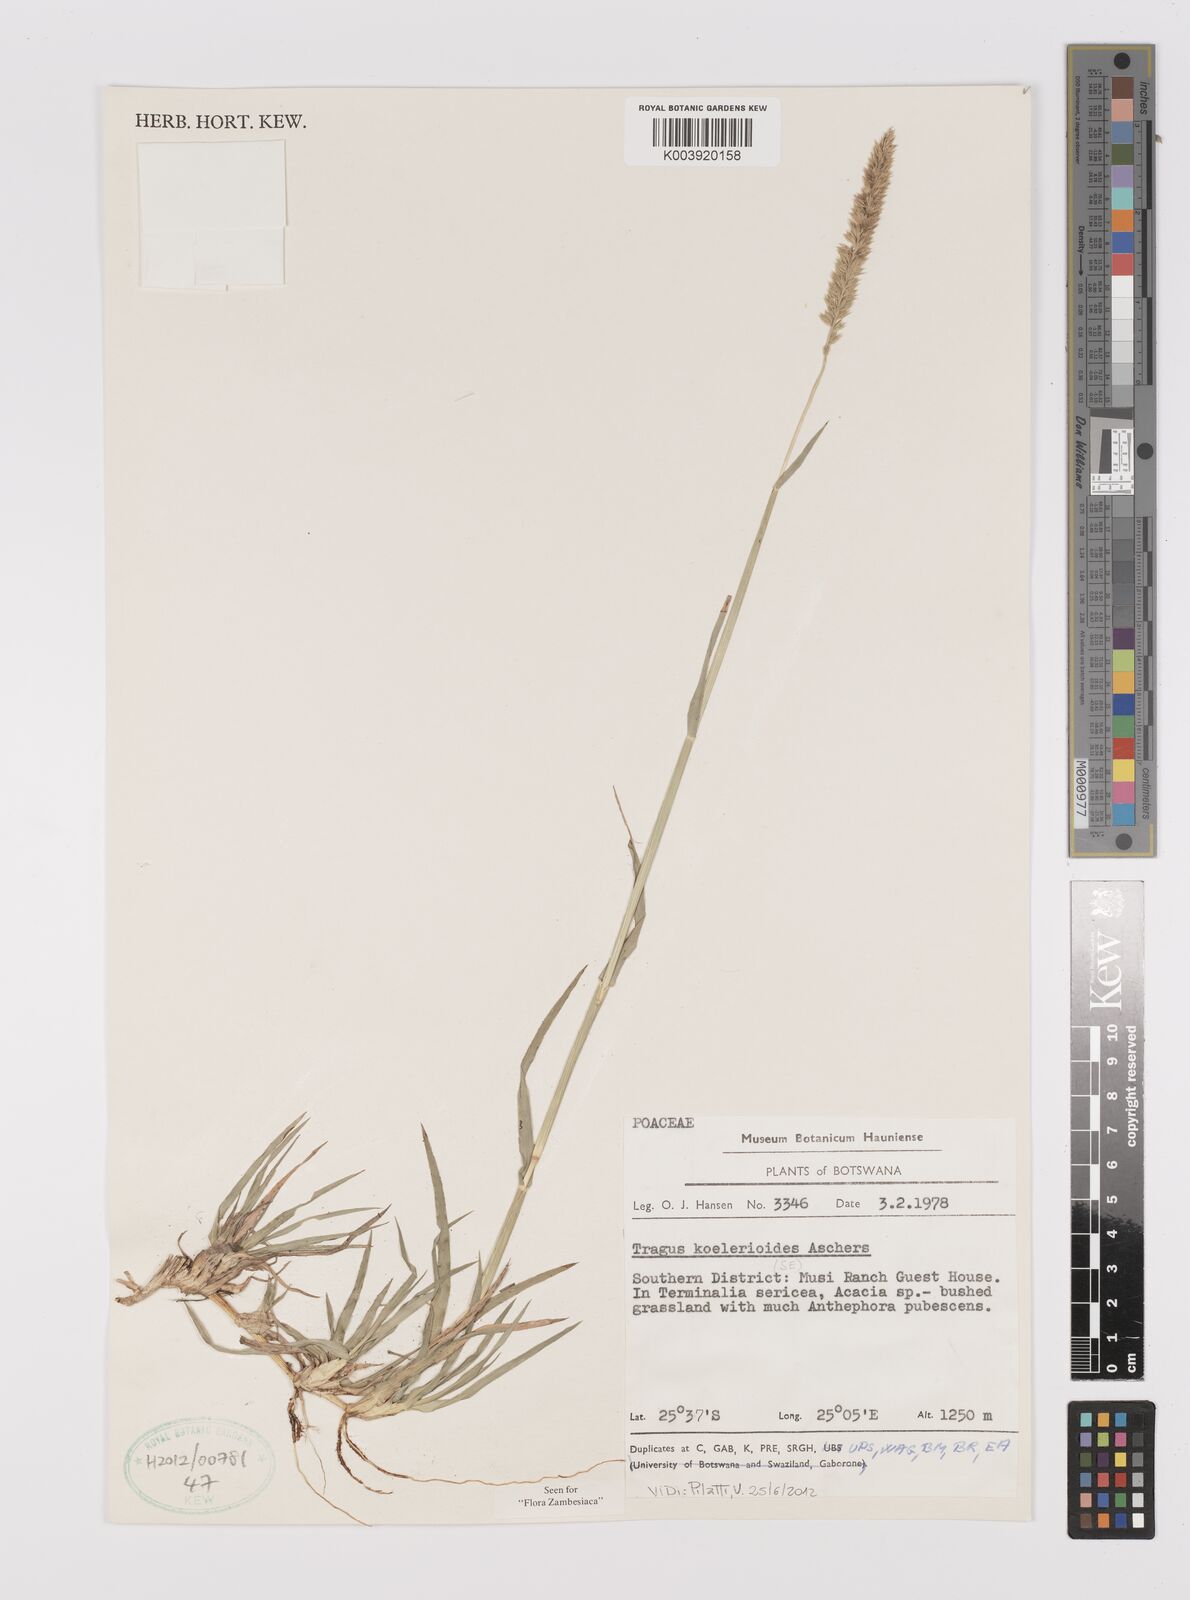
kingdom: Plantae
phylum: Tracheophyta
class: Liliopsida
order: Poales
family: Poaceae
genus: Tragus
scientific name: Tragus koelerioides
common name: Creeping carrot-seed grass
